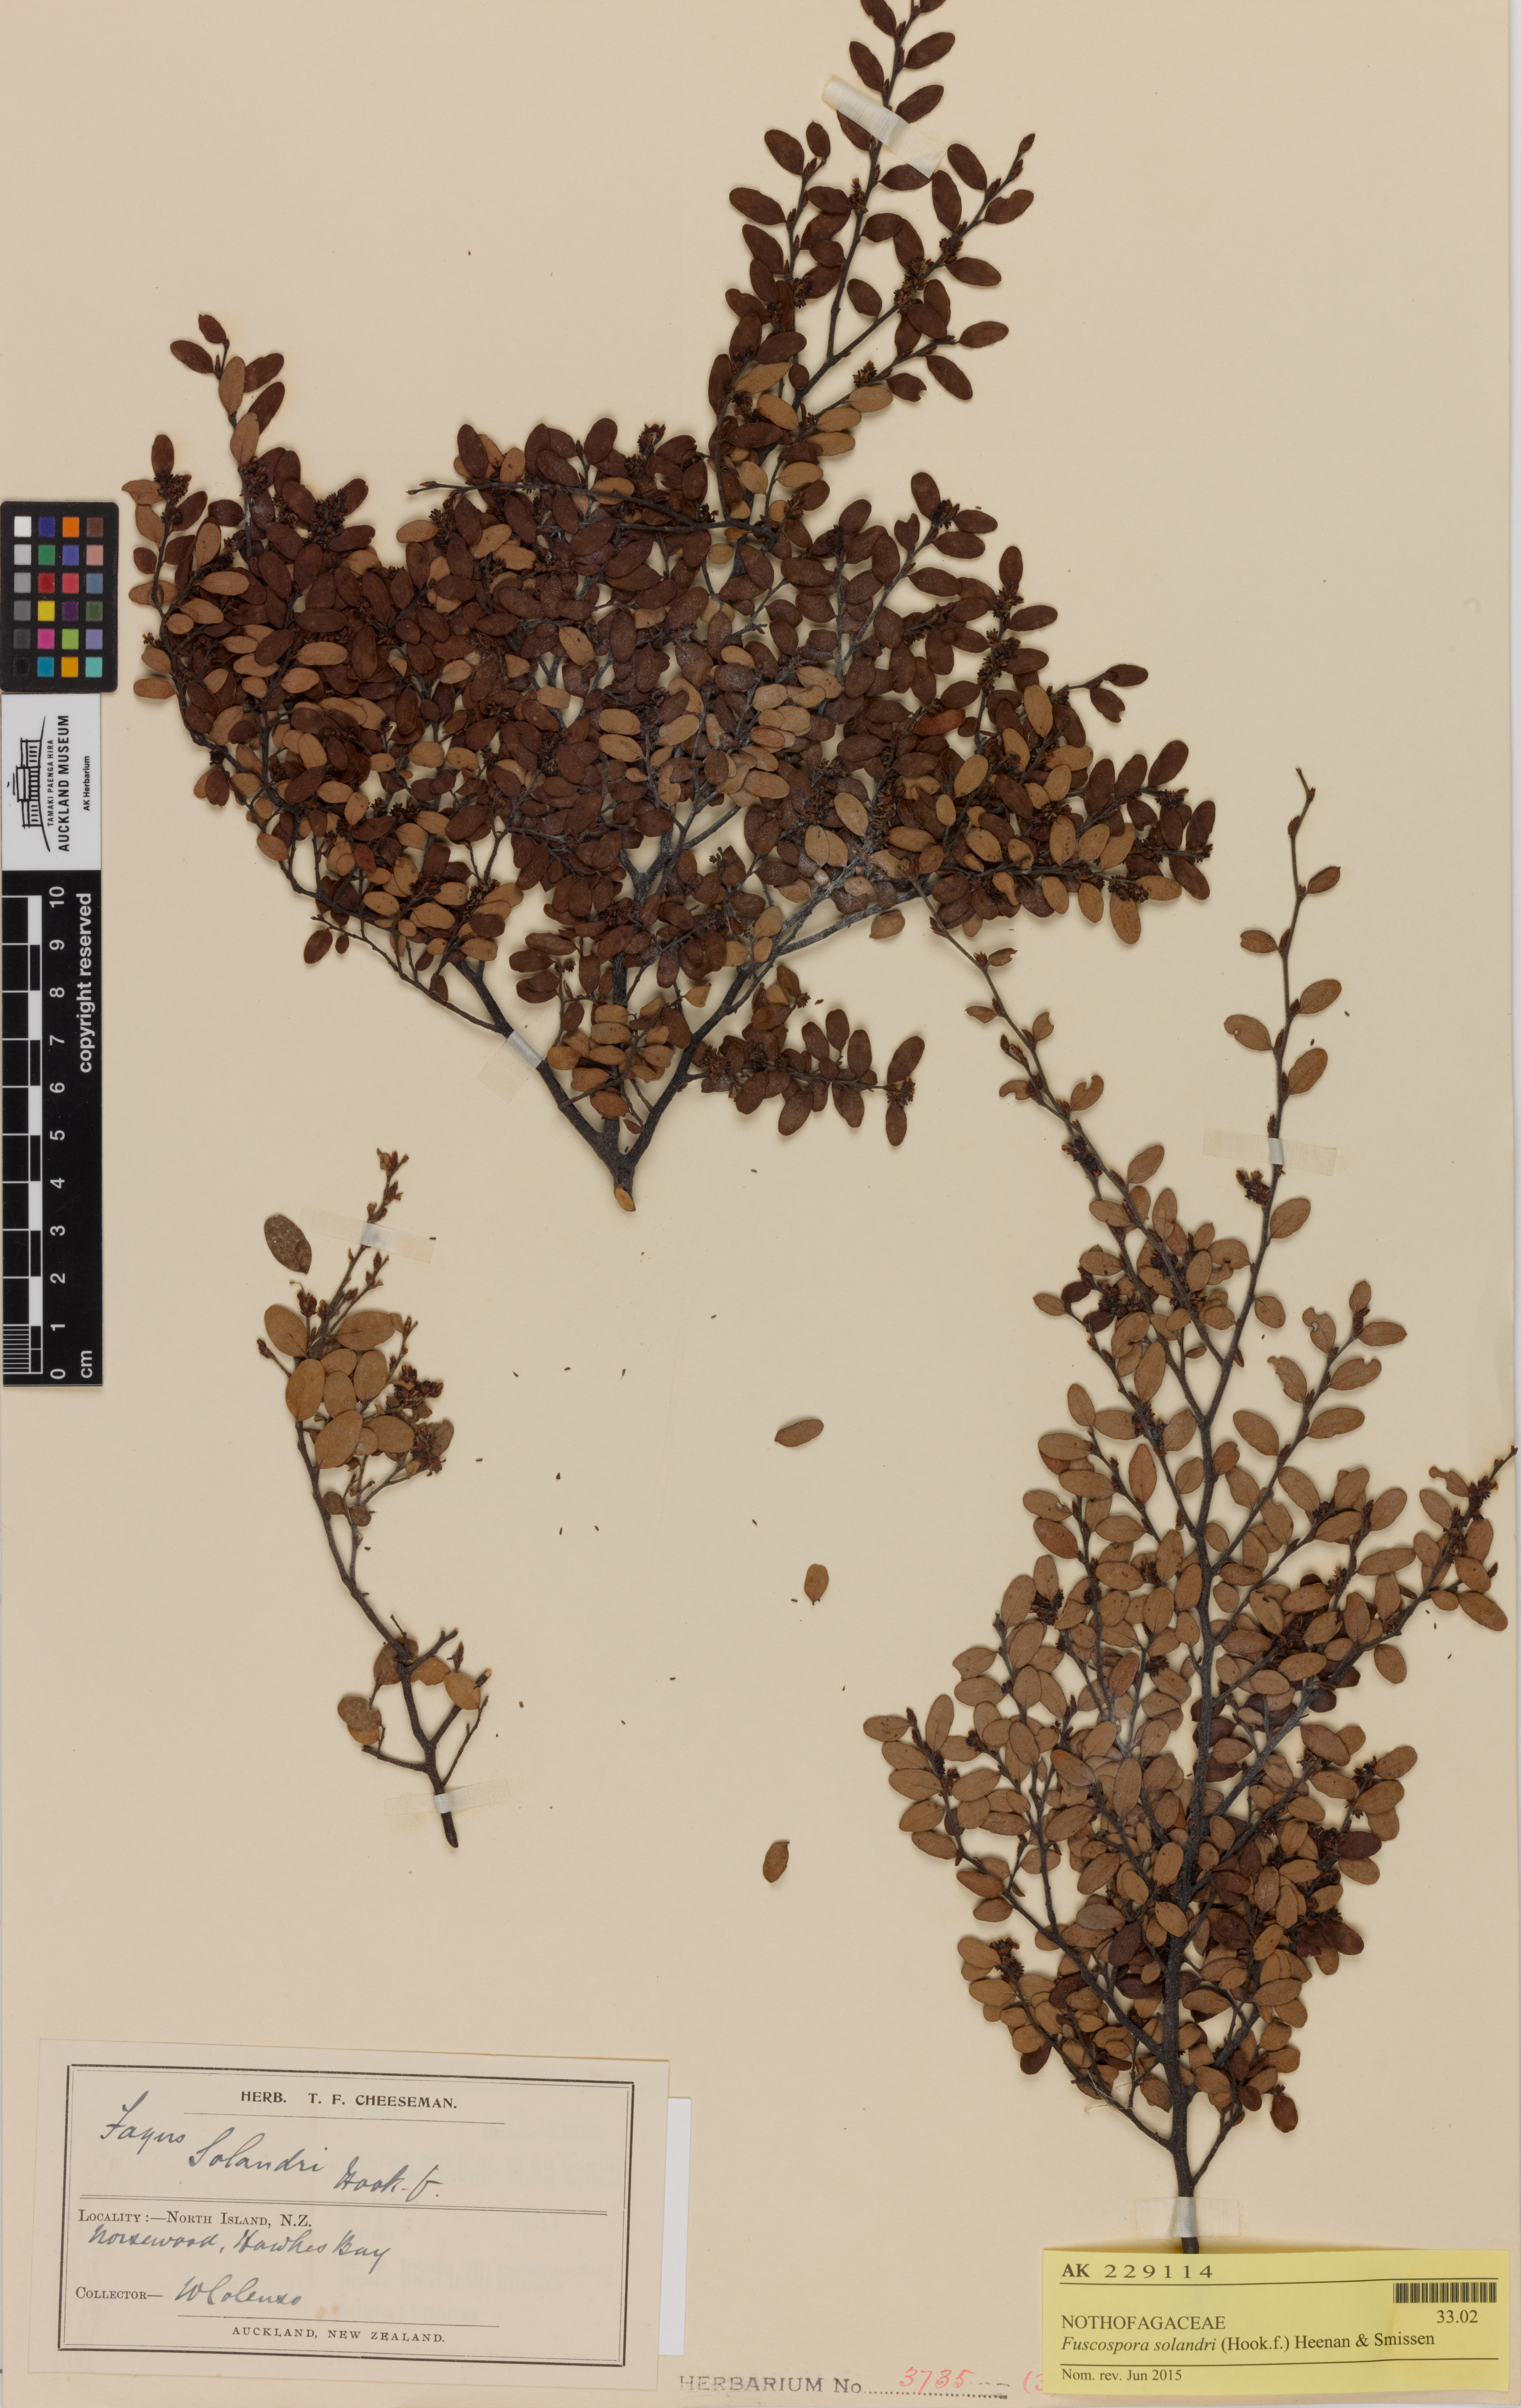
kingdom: Plantae
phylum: Tracheophyta
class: Magnoliopsida
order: Fagales
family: Nothofagaceae
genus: Nothofagus
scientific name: Nothofagus solandri
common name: Black beech
